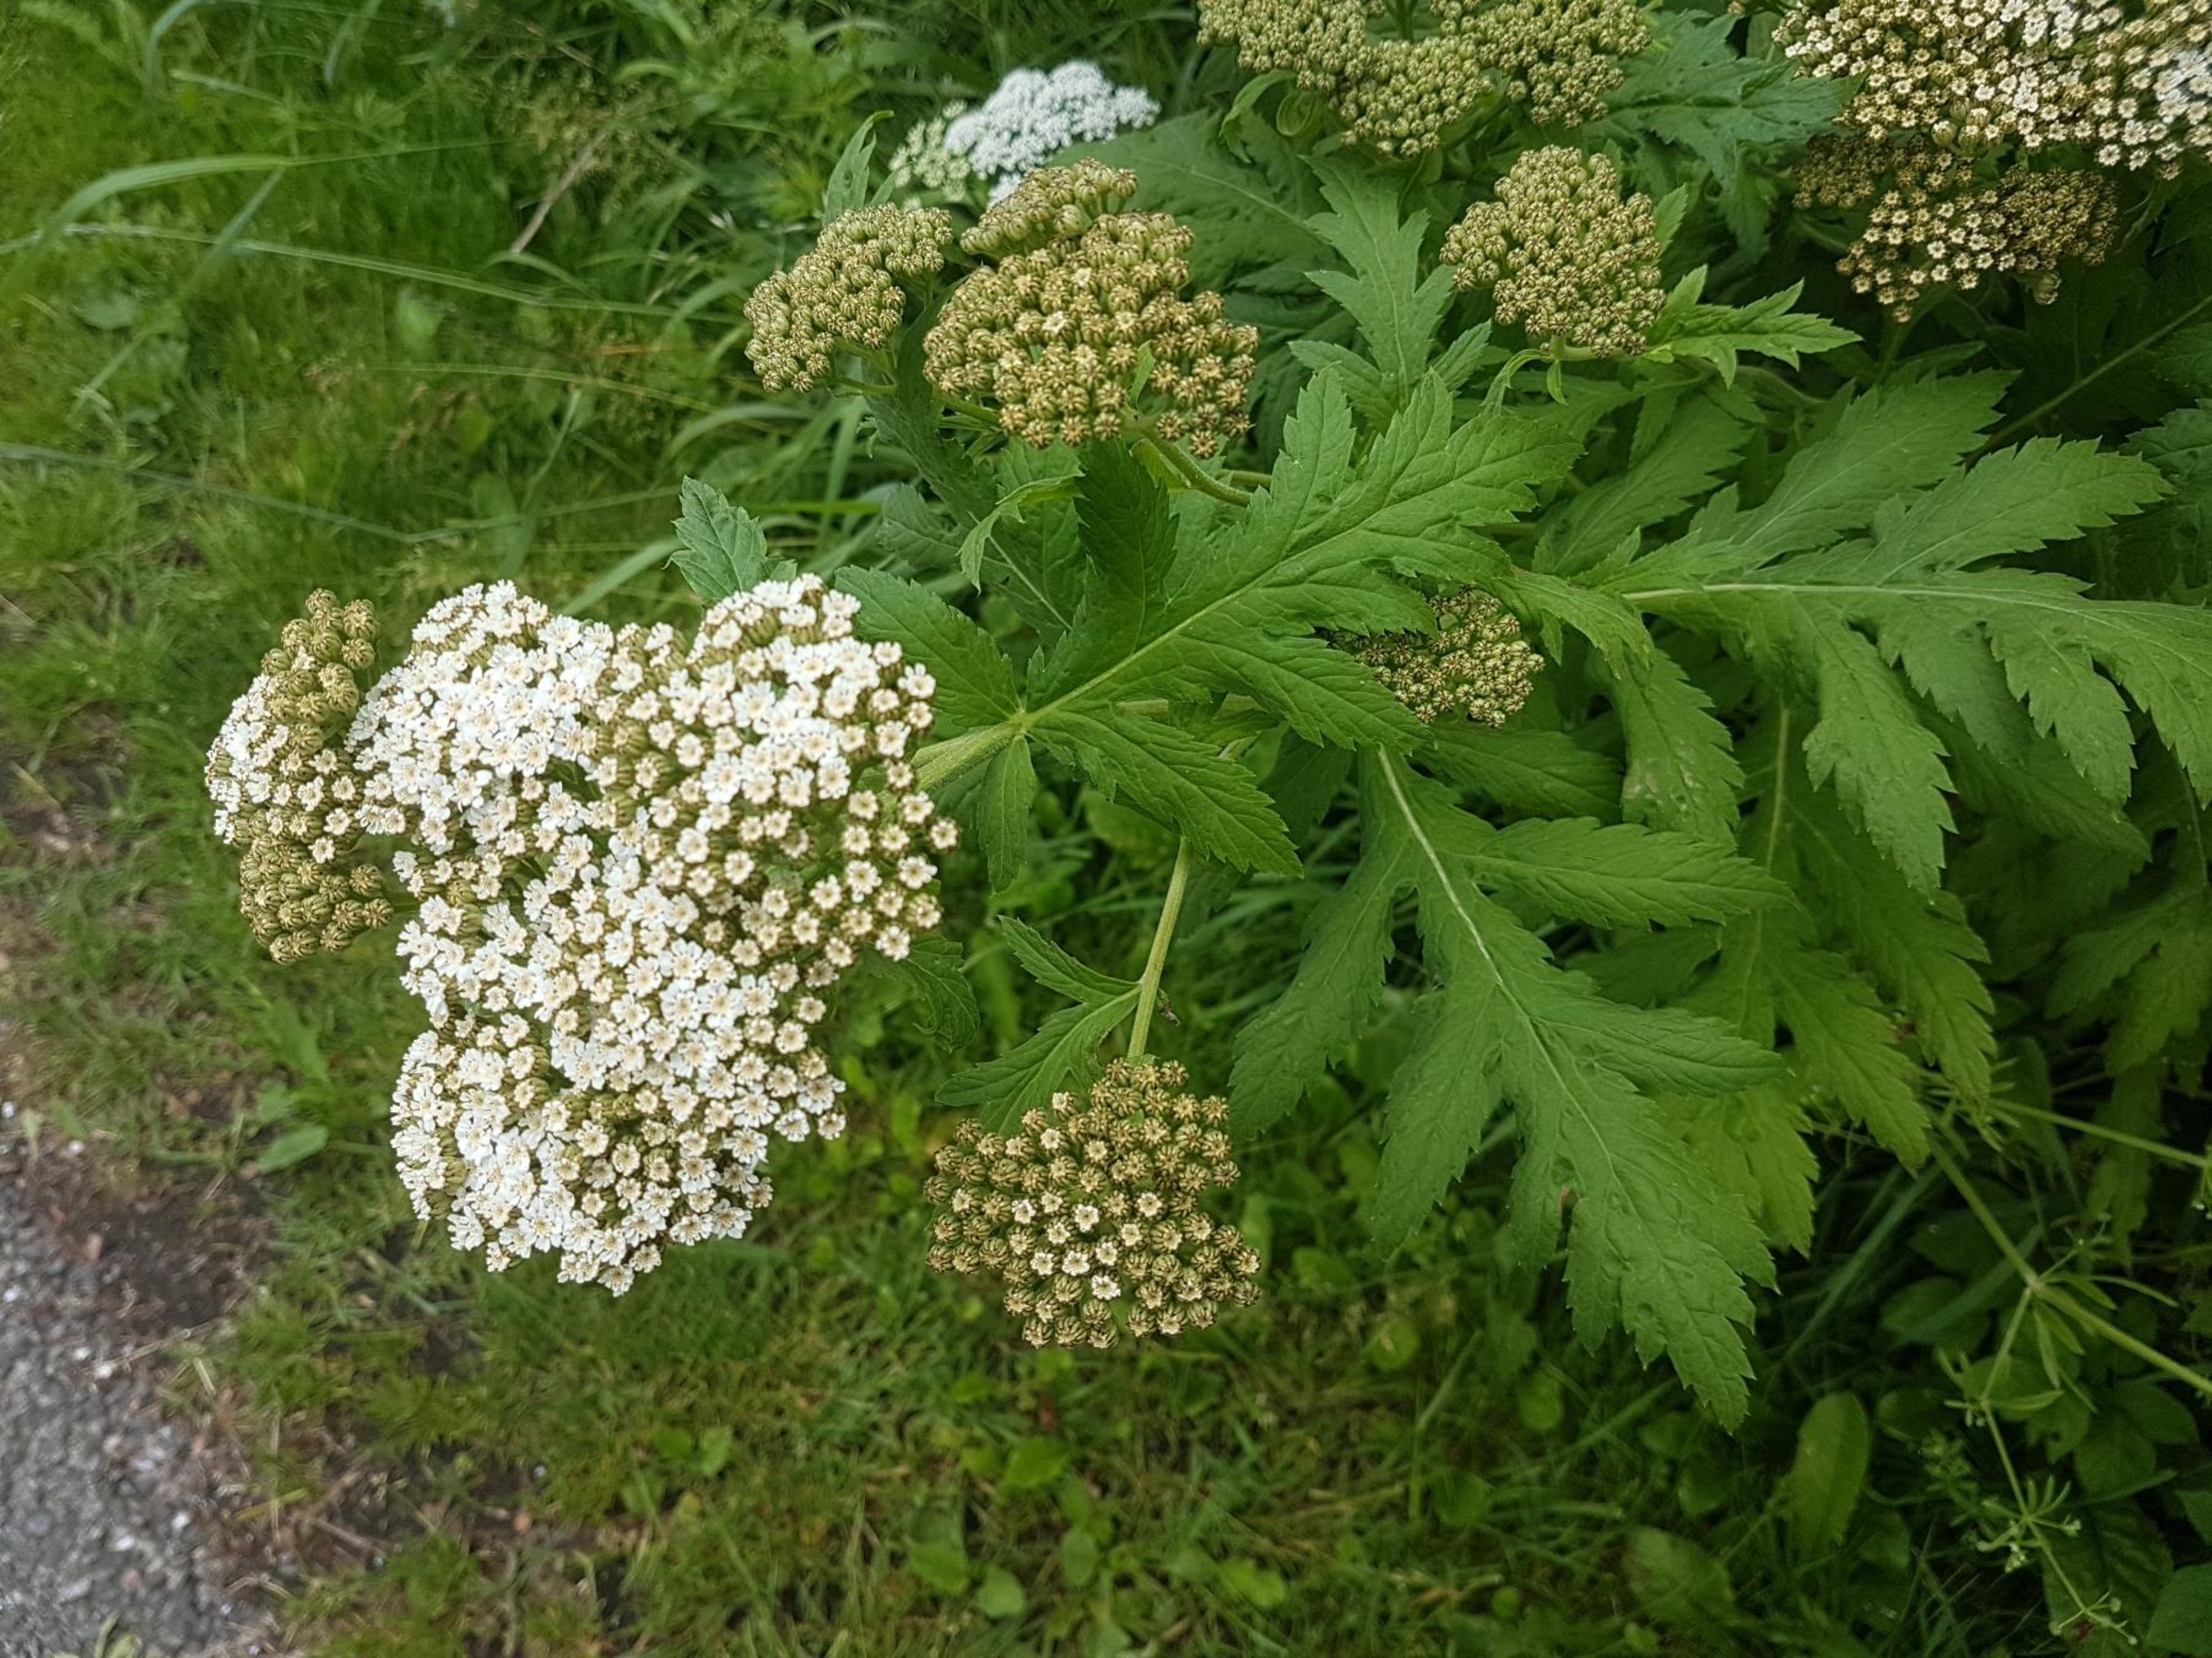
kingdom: Plantae
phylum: Tracheophyta
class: Magnoliopsida
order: Asterales
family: Asteraceae
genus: Tanacetum
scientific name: Tanacetum macrophyllum
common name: Røllike-matrem
